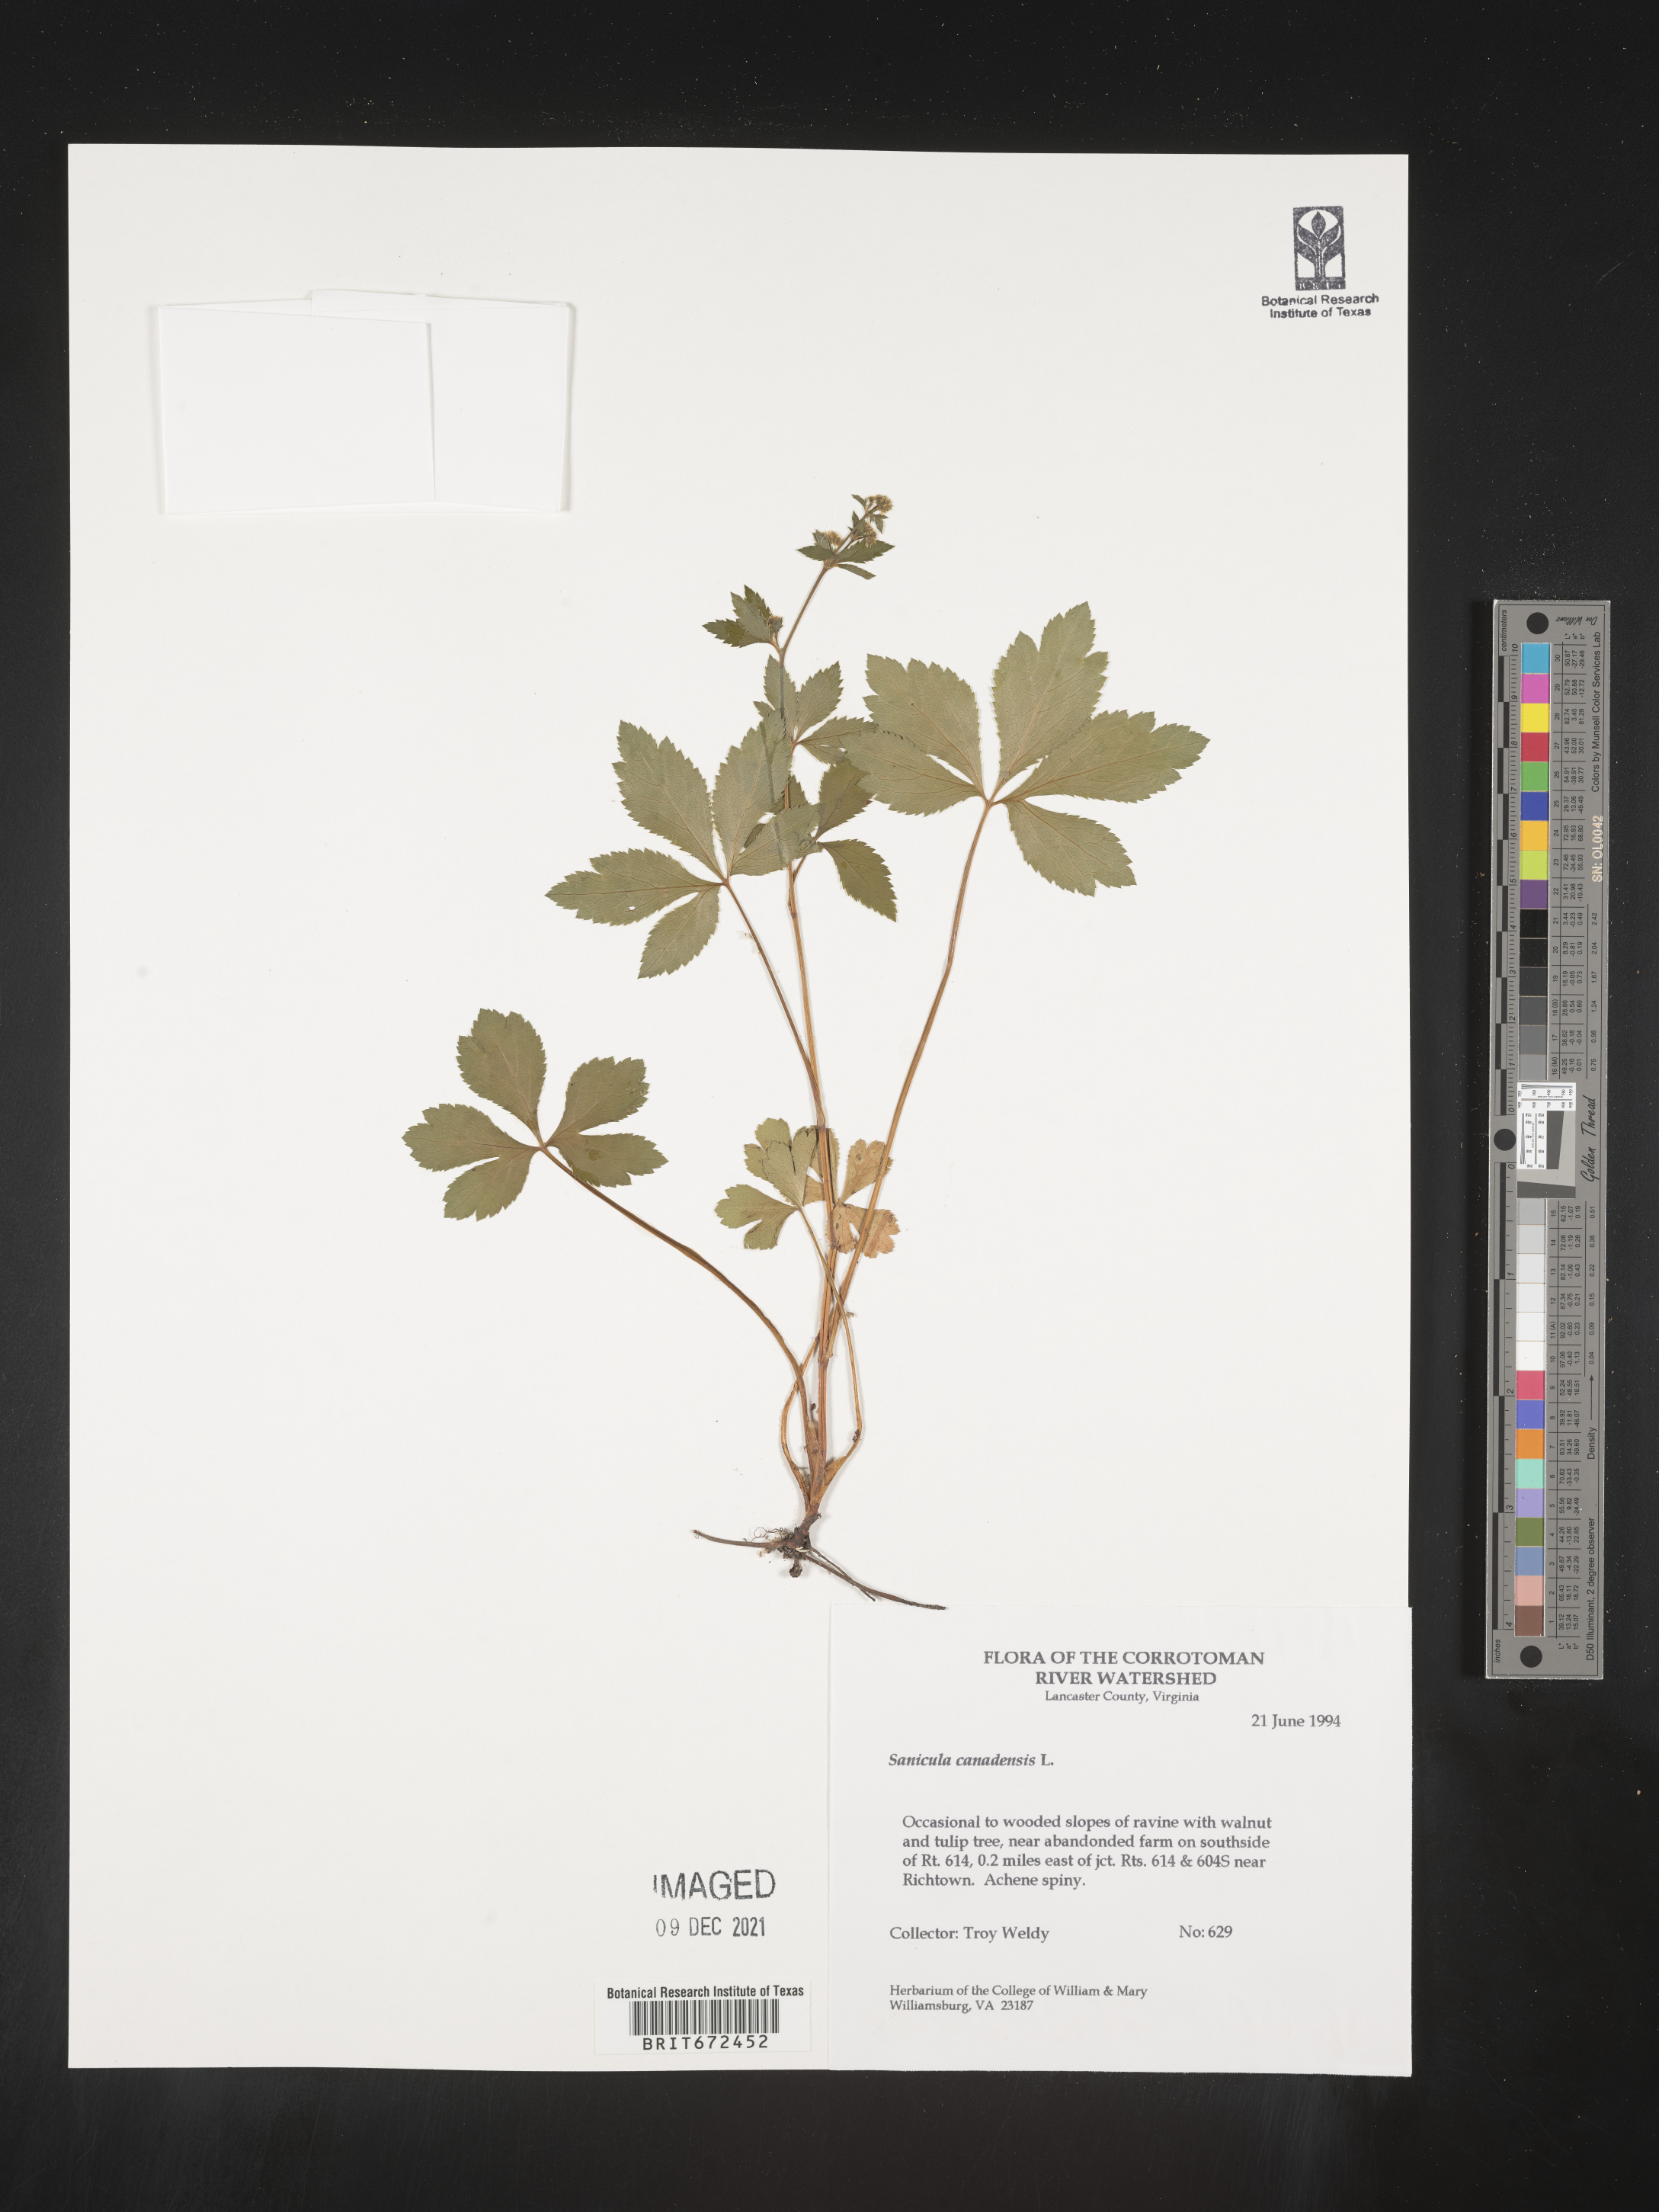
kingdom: Plantae
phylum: Tracheophyta
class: Magnoliopsida
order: Apiales
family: Apiaceae
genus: Sanicula
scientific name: Sanicula canadensis
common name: Canada sanicle
